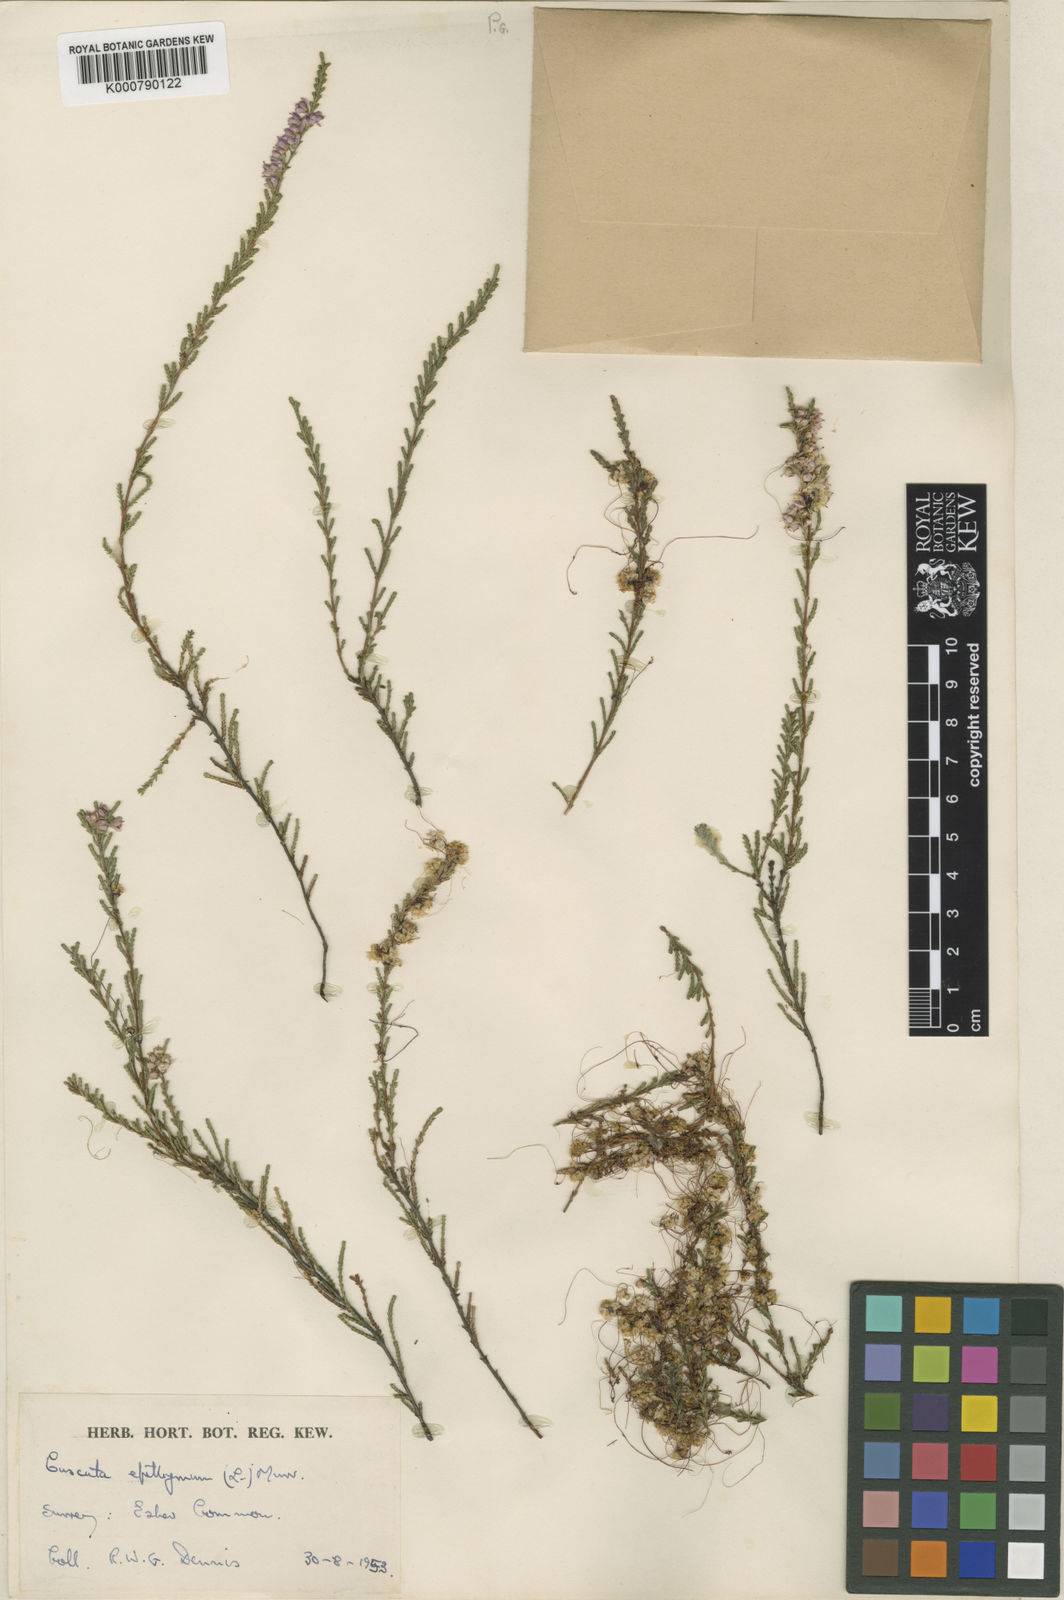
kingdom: Plantae
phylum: Tracheophyta
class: Magnoliopsida
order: Solanales
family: Convolvulaceae
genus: Cuscuta
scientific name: Cuscuta epithymum
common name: Clover dodder
